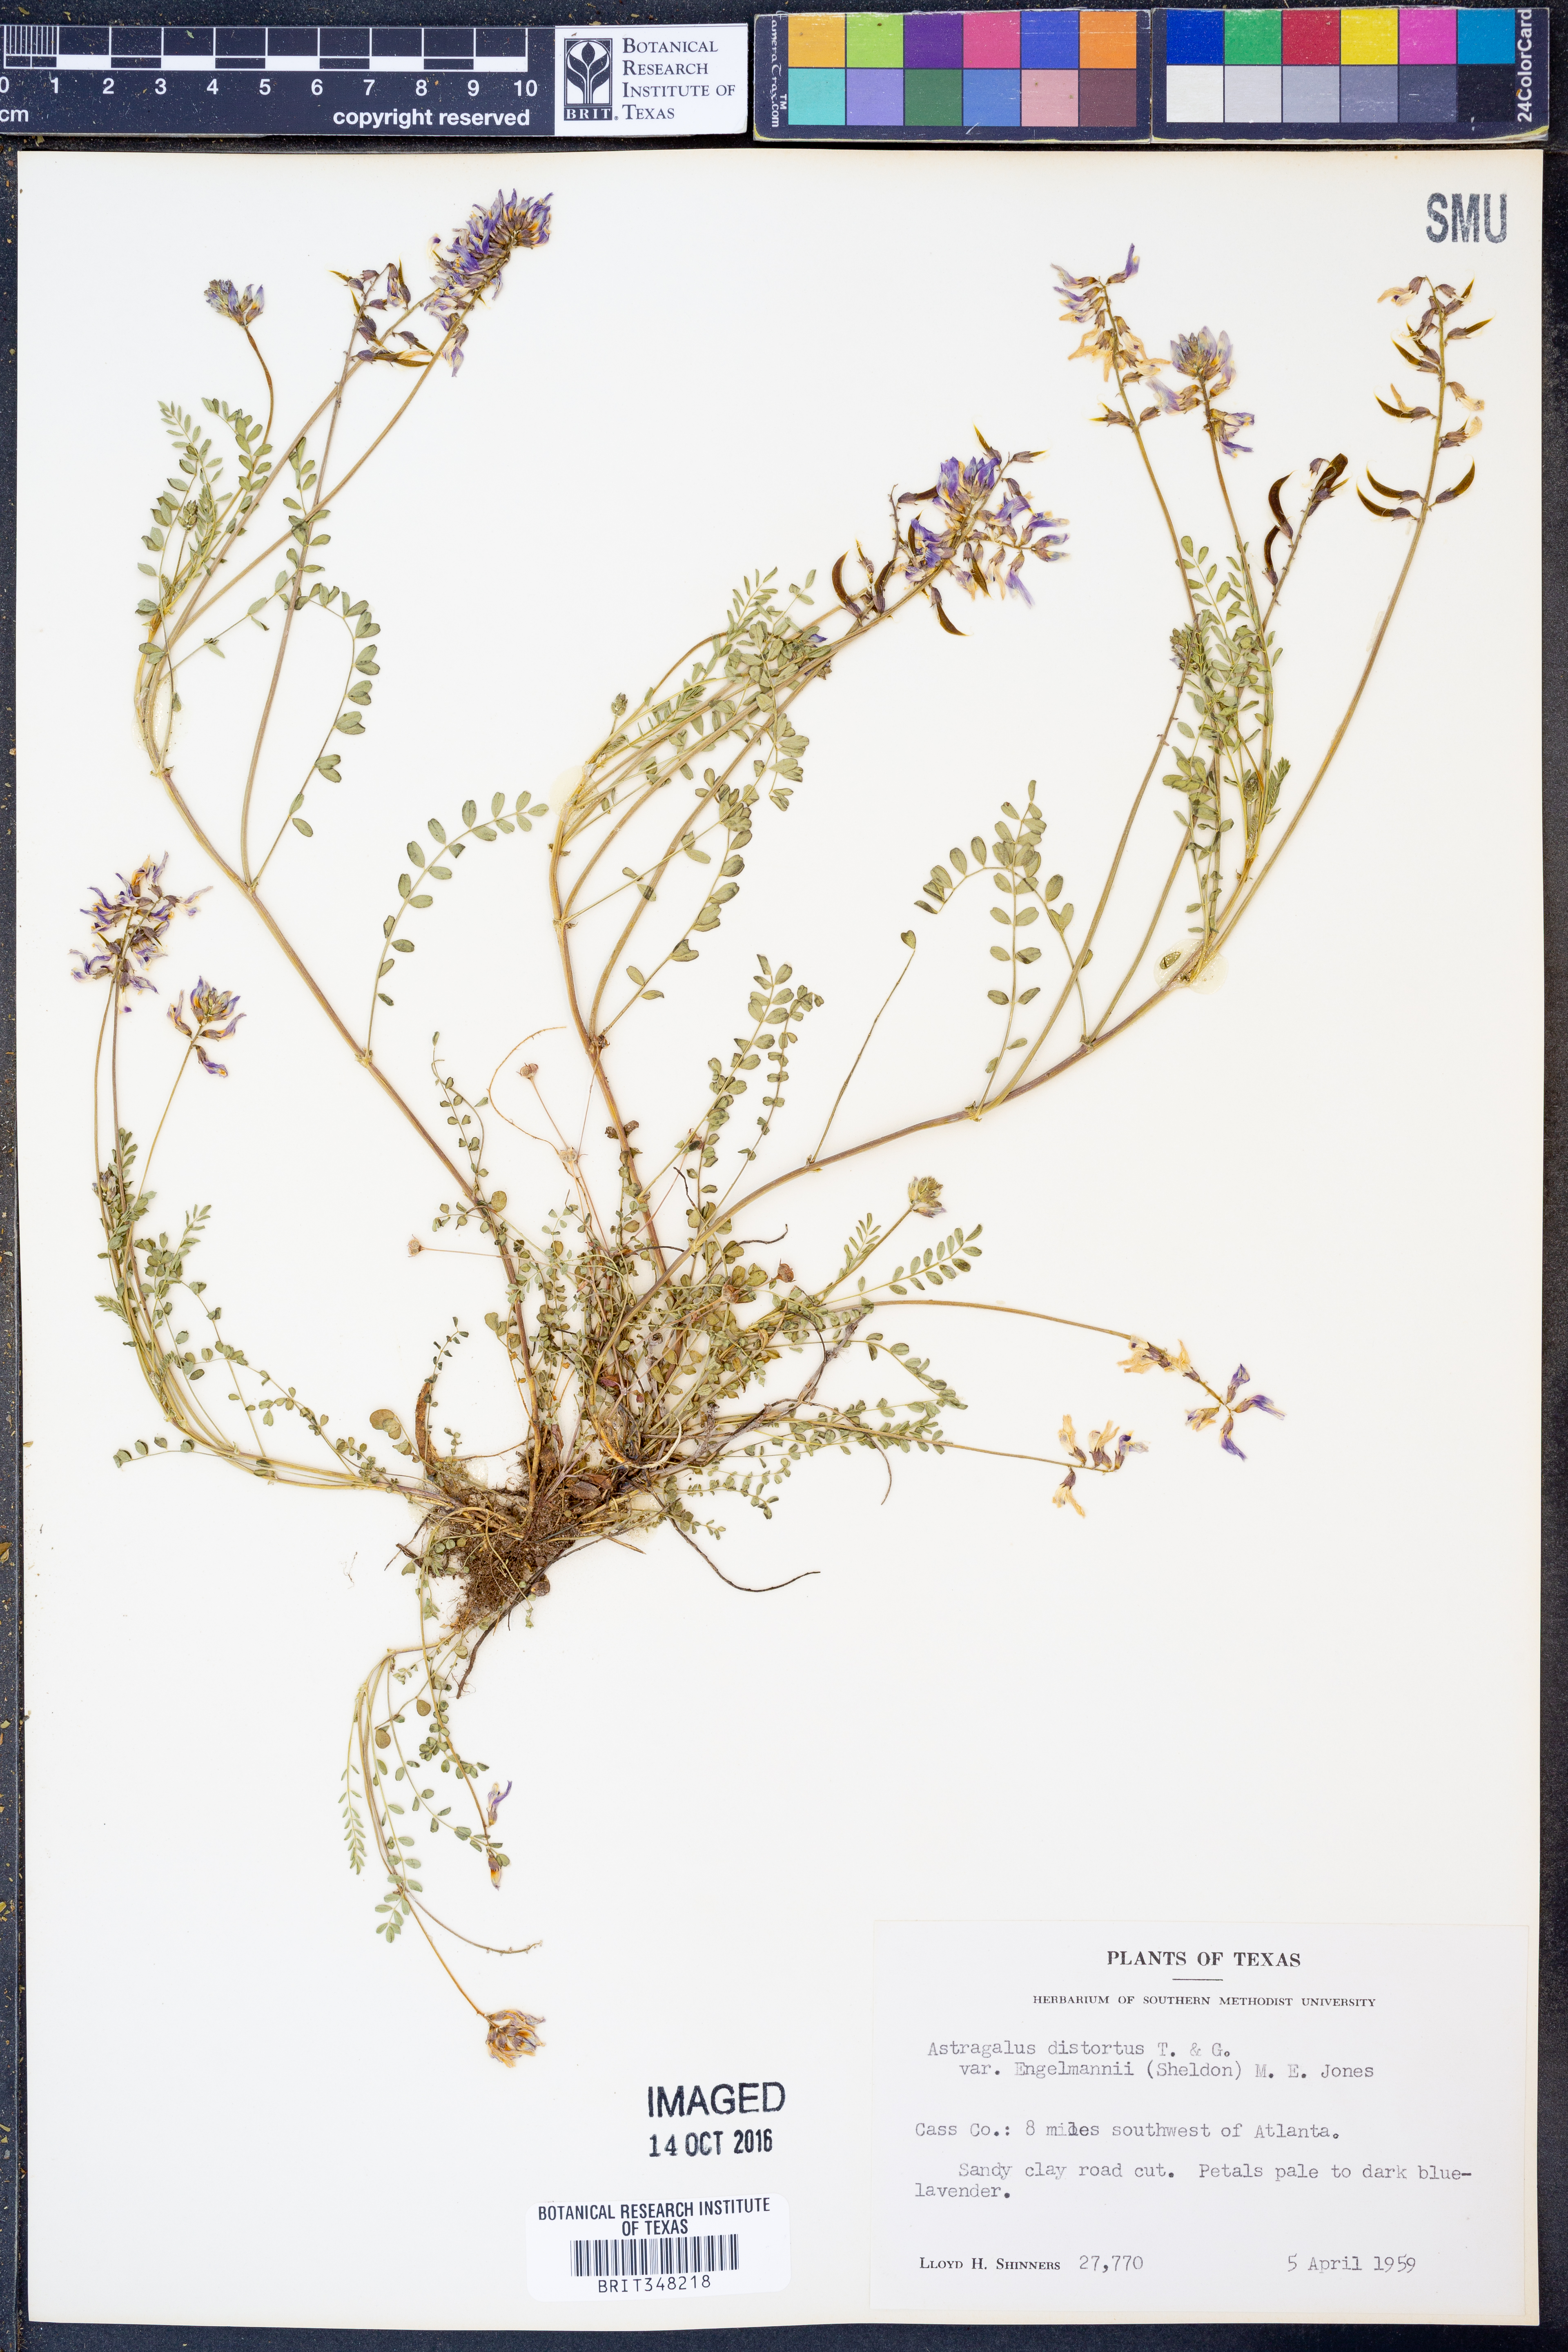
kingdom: Plantae
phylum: Tracheophyta
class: Magnoliopsida
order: Fabales
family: Fabaceae
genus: Astragalus
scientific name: Astragalus distortus
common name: Ozark milk-vetch
